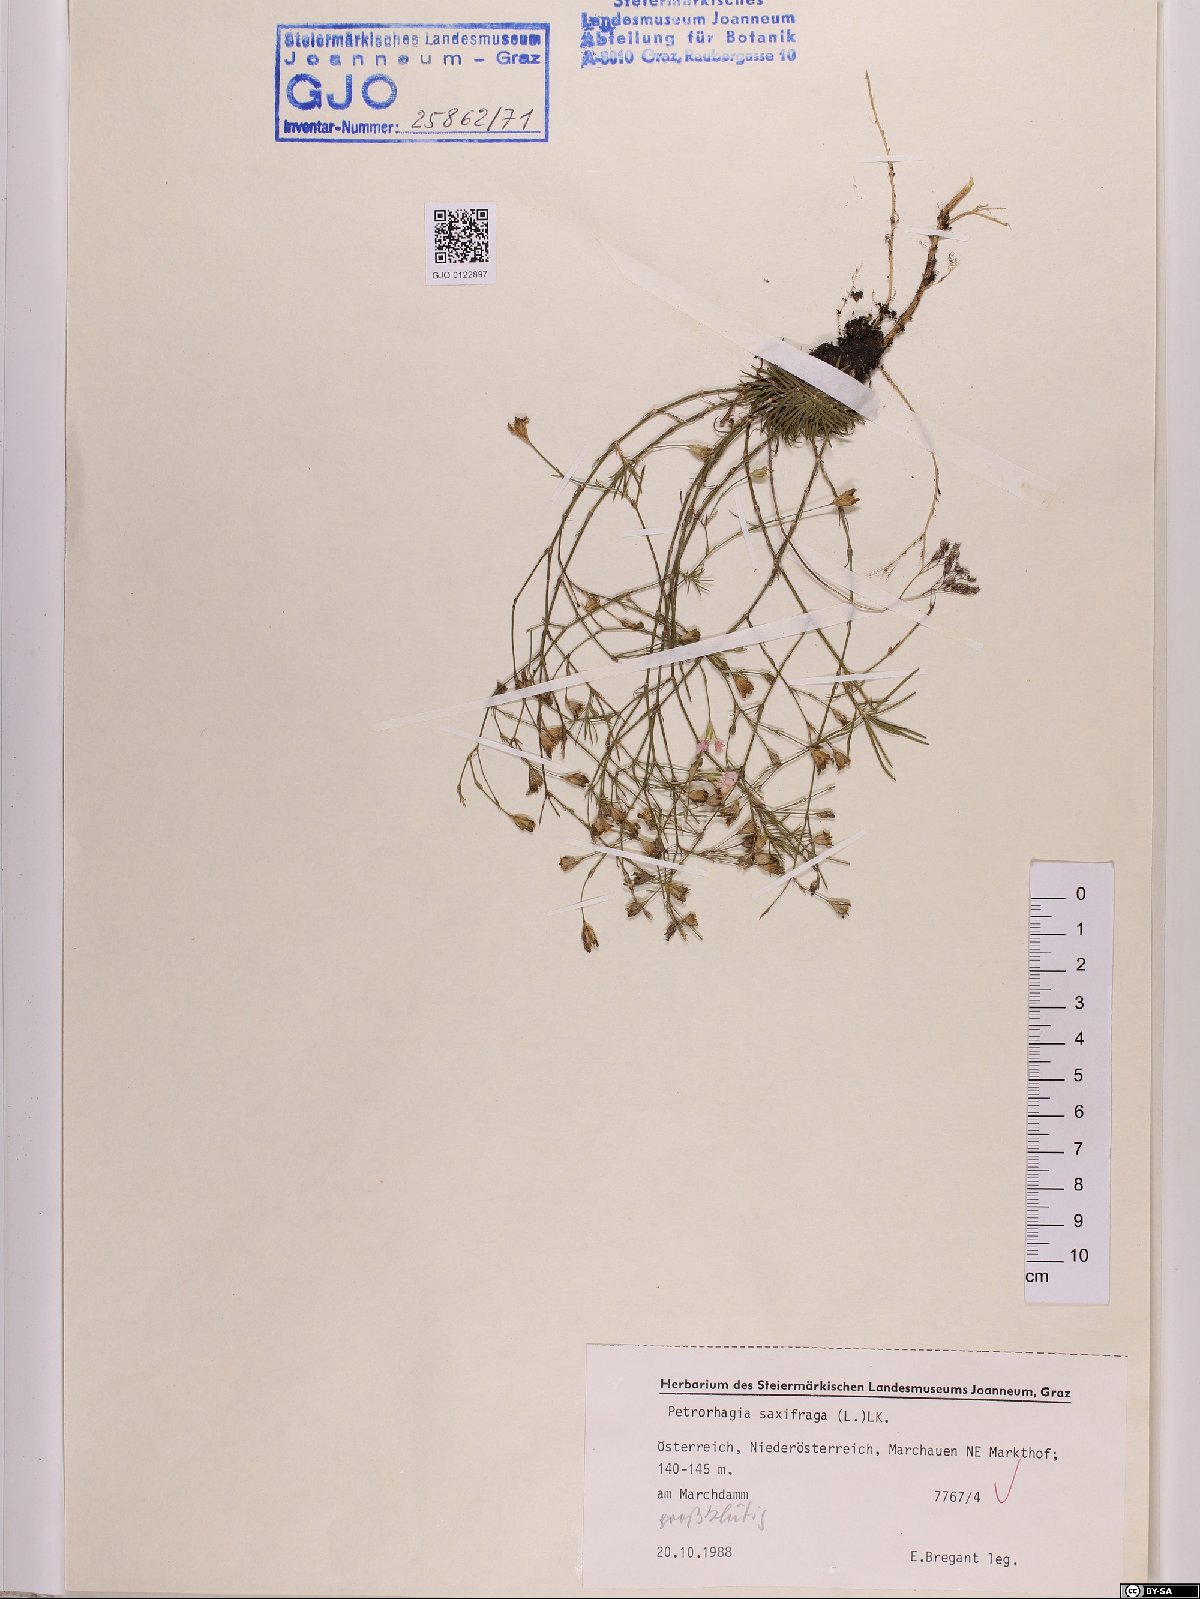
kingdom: Plantae
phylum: Tracheophyta
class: Magnoliopsida
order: Caryophyllales
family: Caryophyllaceae
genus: Petrorhagia
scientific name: Petrorhagia saxifraga
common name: Tunicflower
